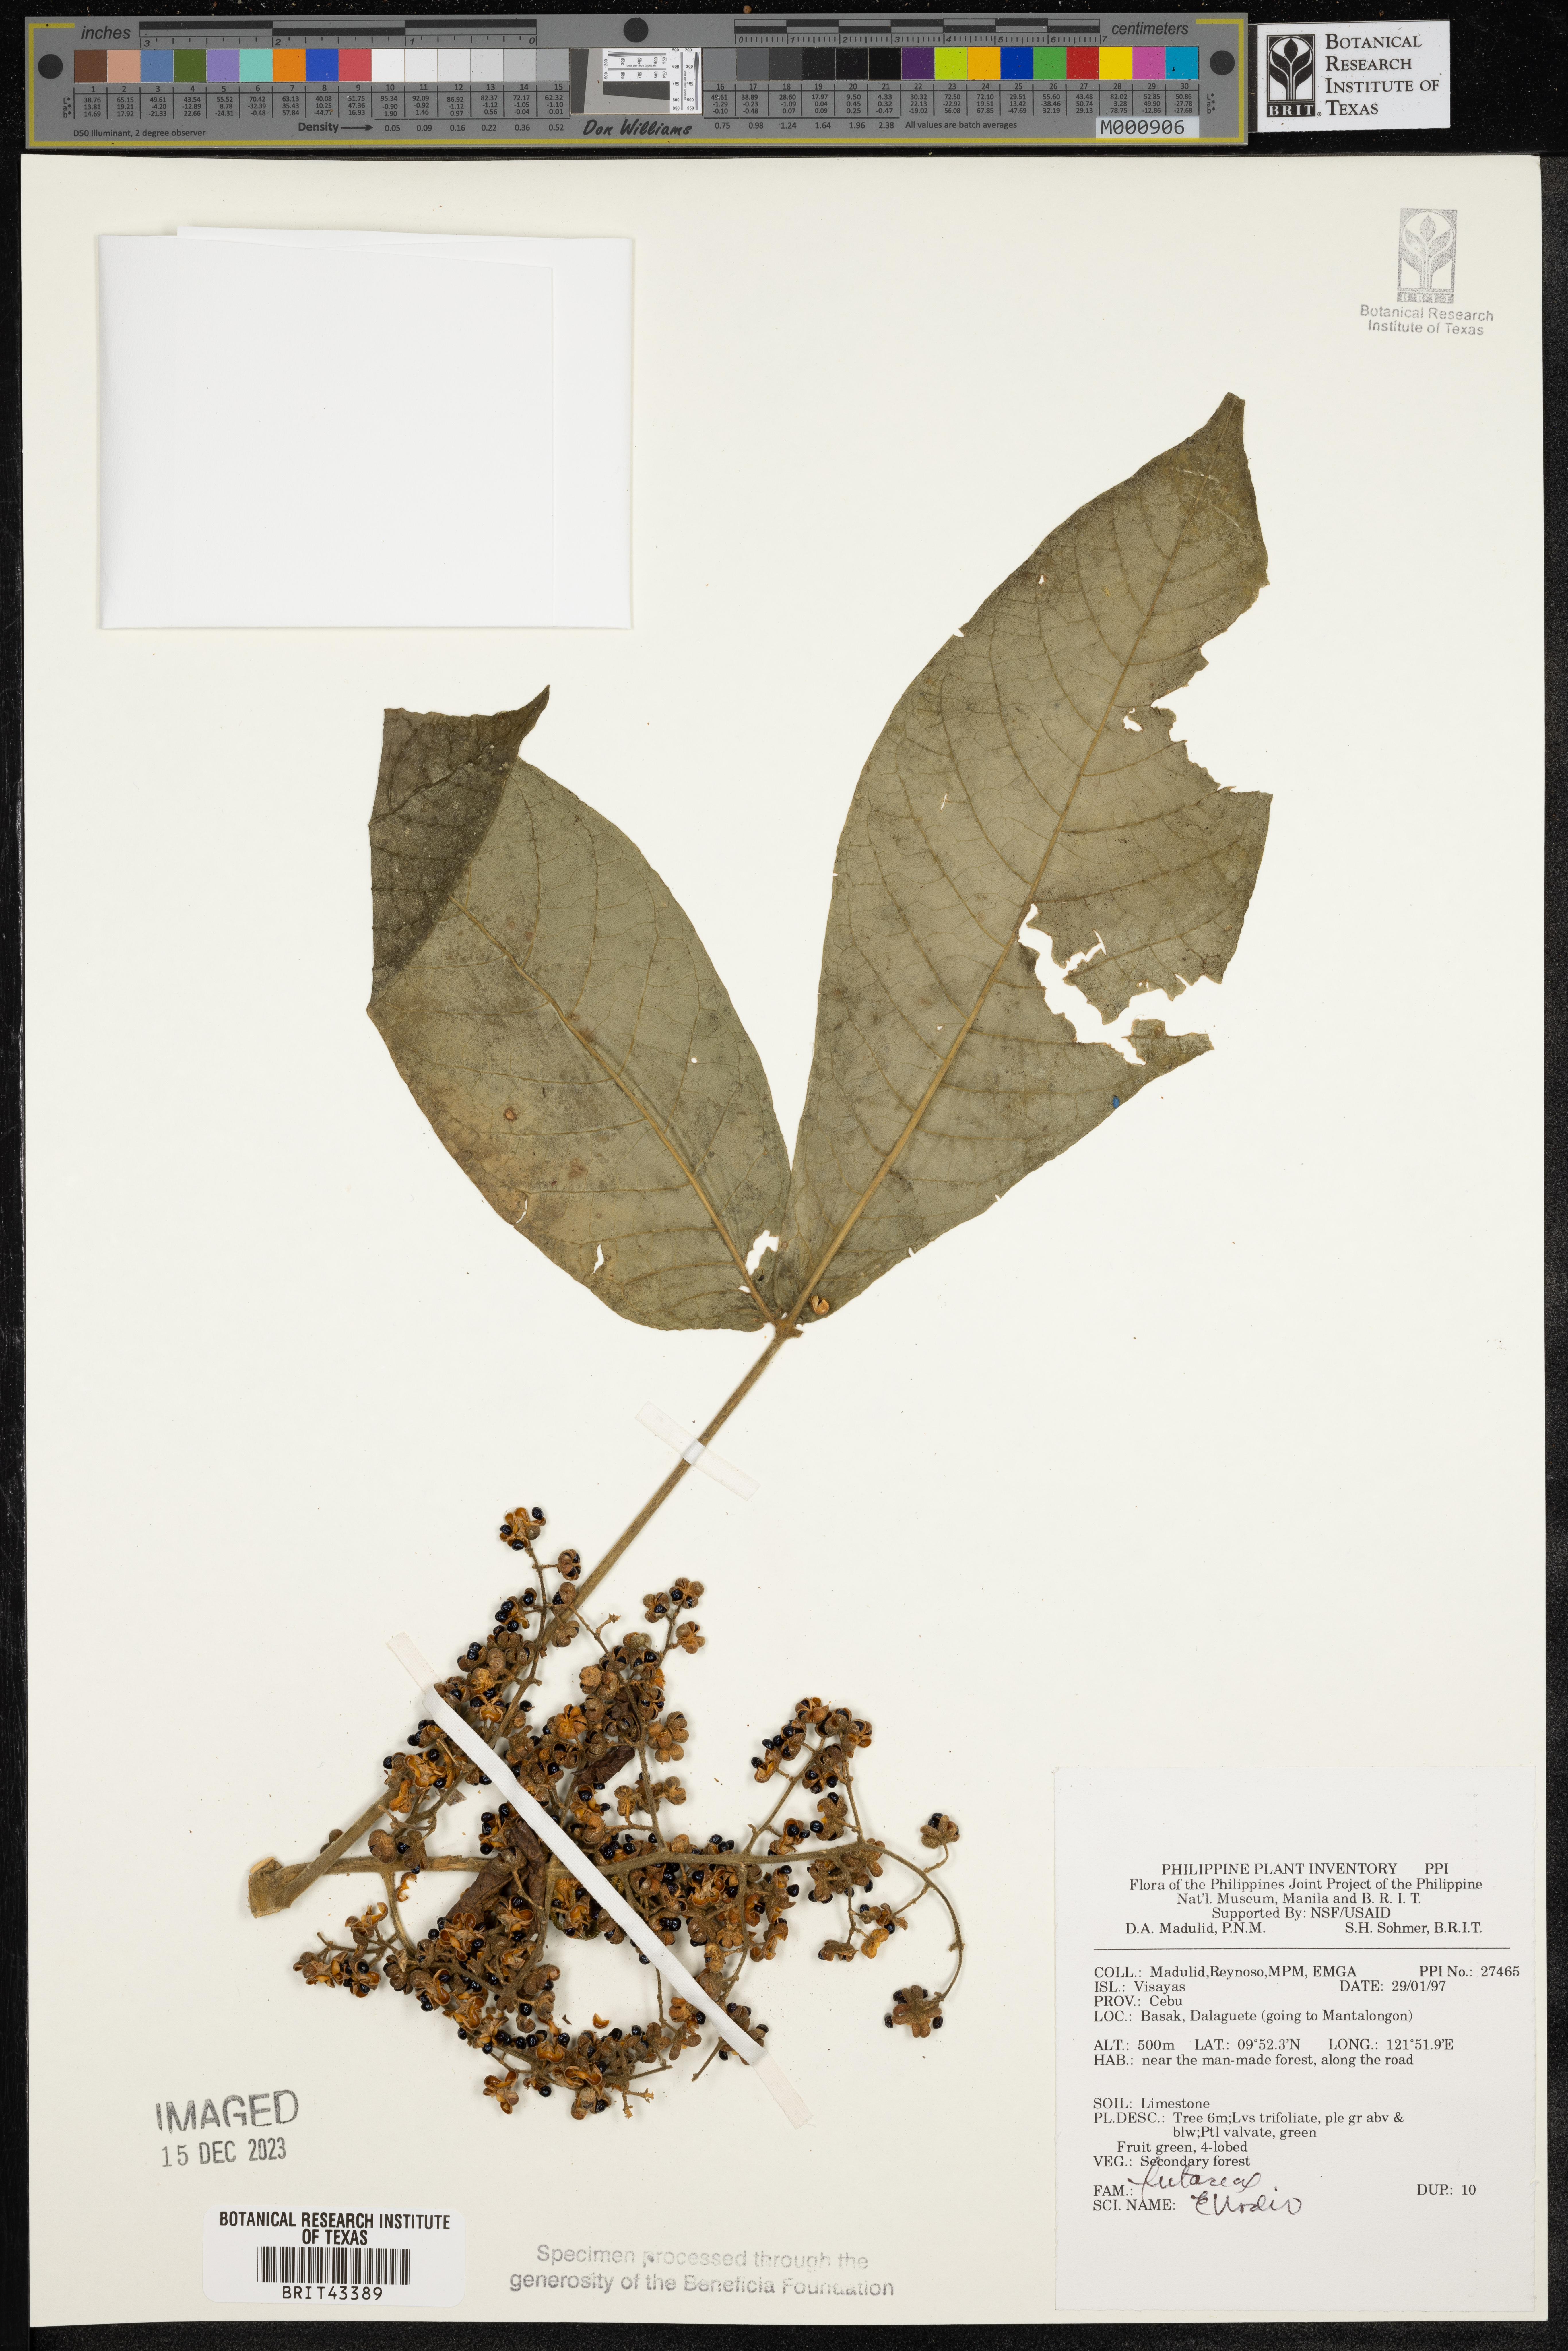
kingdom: Plantae
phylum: Tracheophyta
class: Magnoliopsida
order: Sapindales
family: Rutaceae
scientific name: Rutaceae
